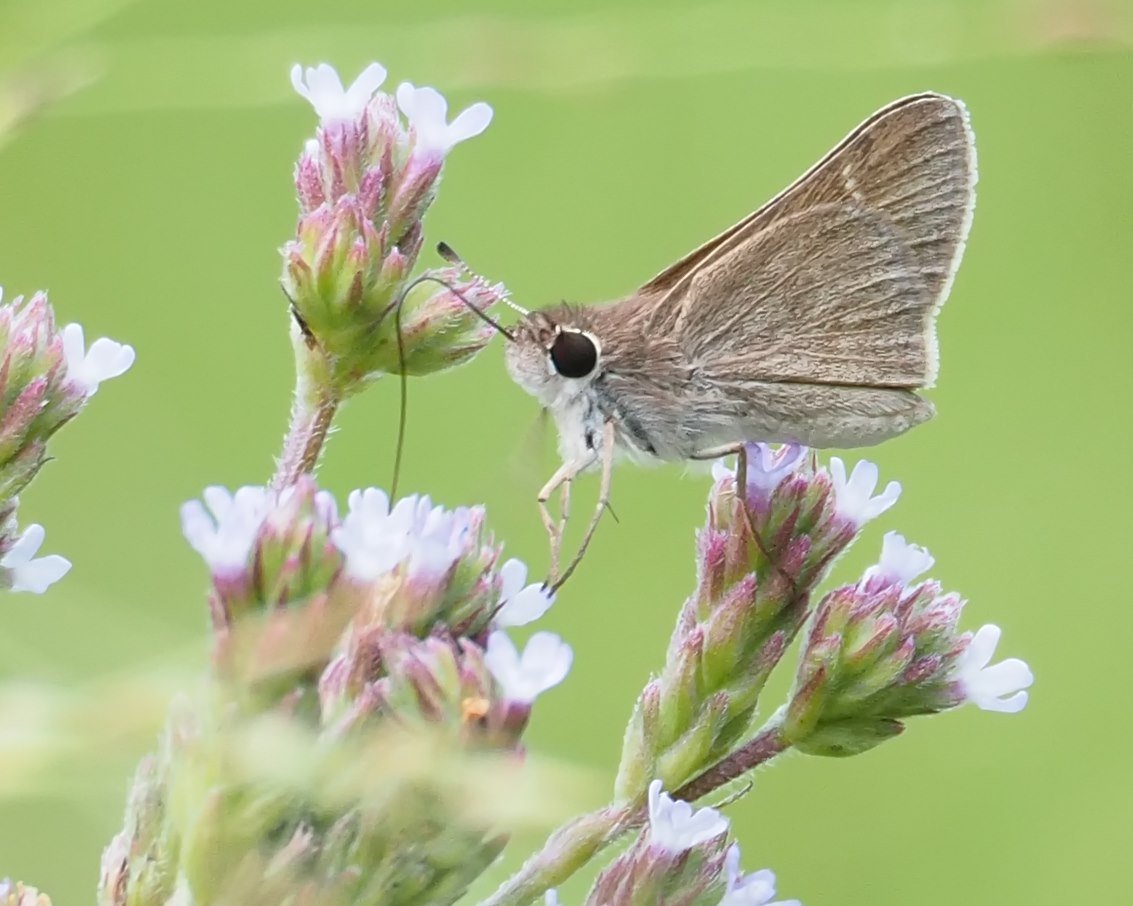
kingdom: Animalia
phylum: Arthropoda
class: Insecta
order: Lepidoptera
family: Hesperiidae
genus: Lerodea
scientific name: Lerodea eufala
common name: Eufala Skipper
